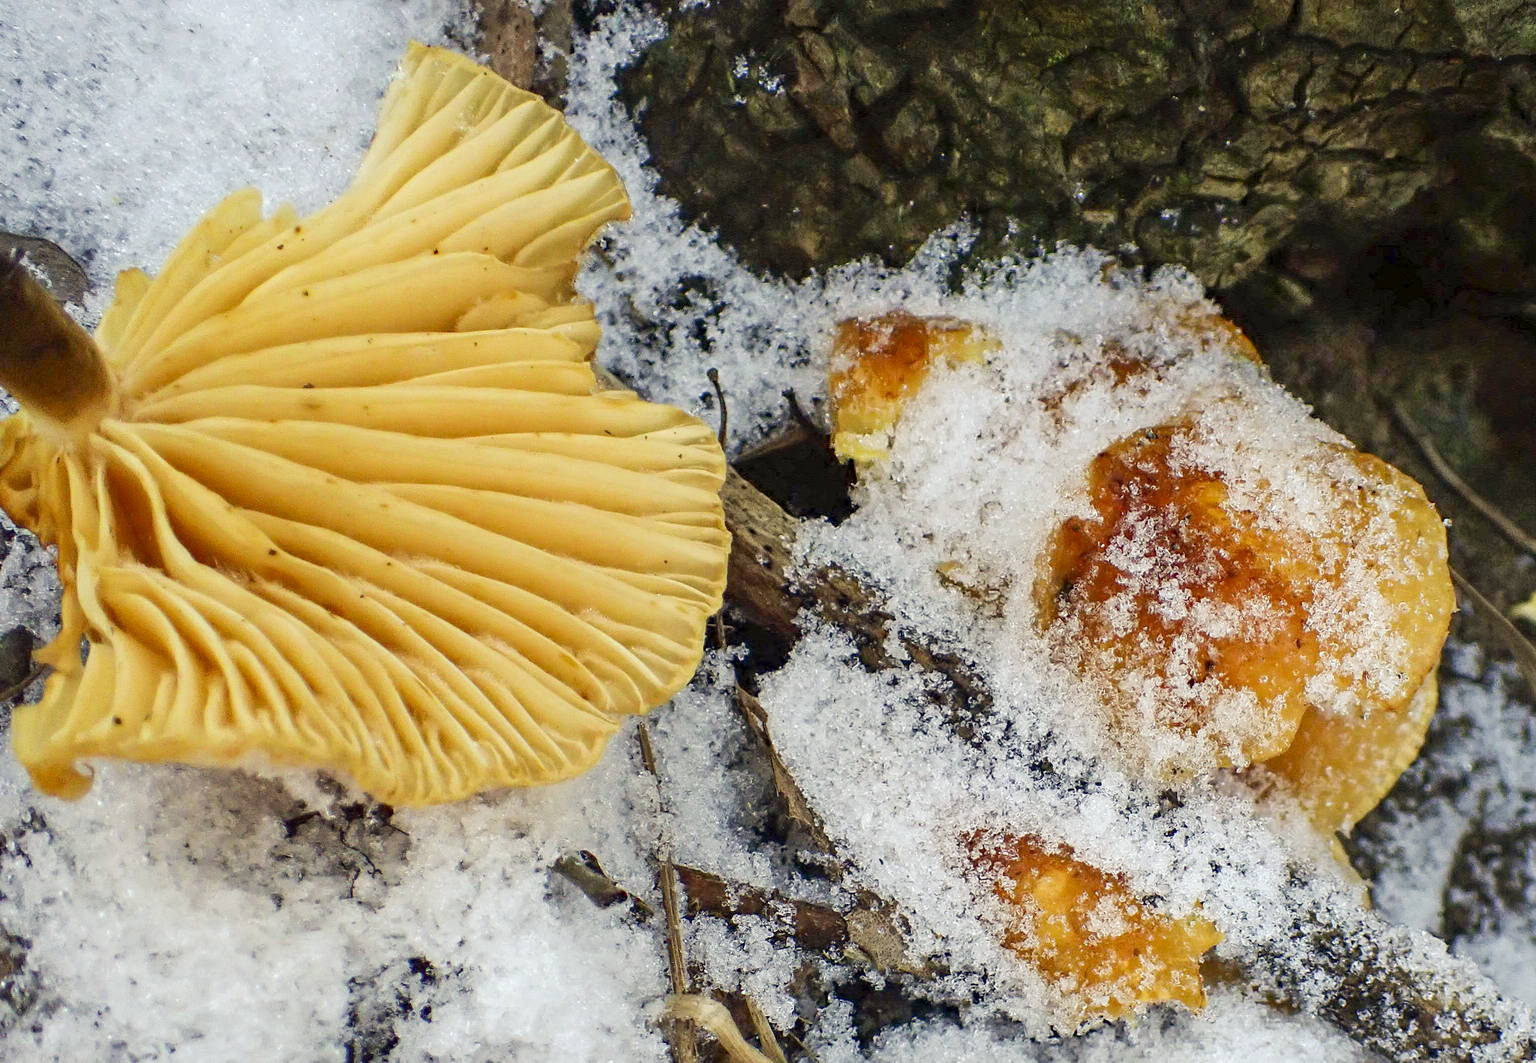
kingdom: Fungi
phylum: Basidiomycota
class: Agaricomycetes
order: Agaricales
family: Physalacriaceae
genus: Flammulina
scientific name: Flammulina elastica
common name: pile-fløjlsfod
